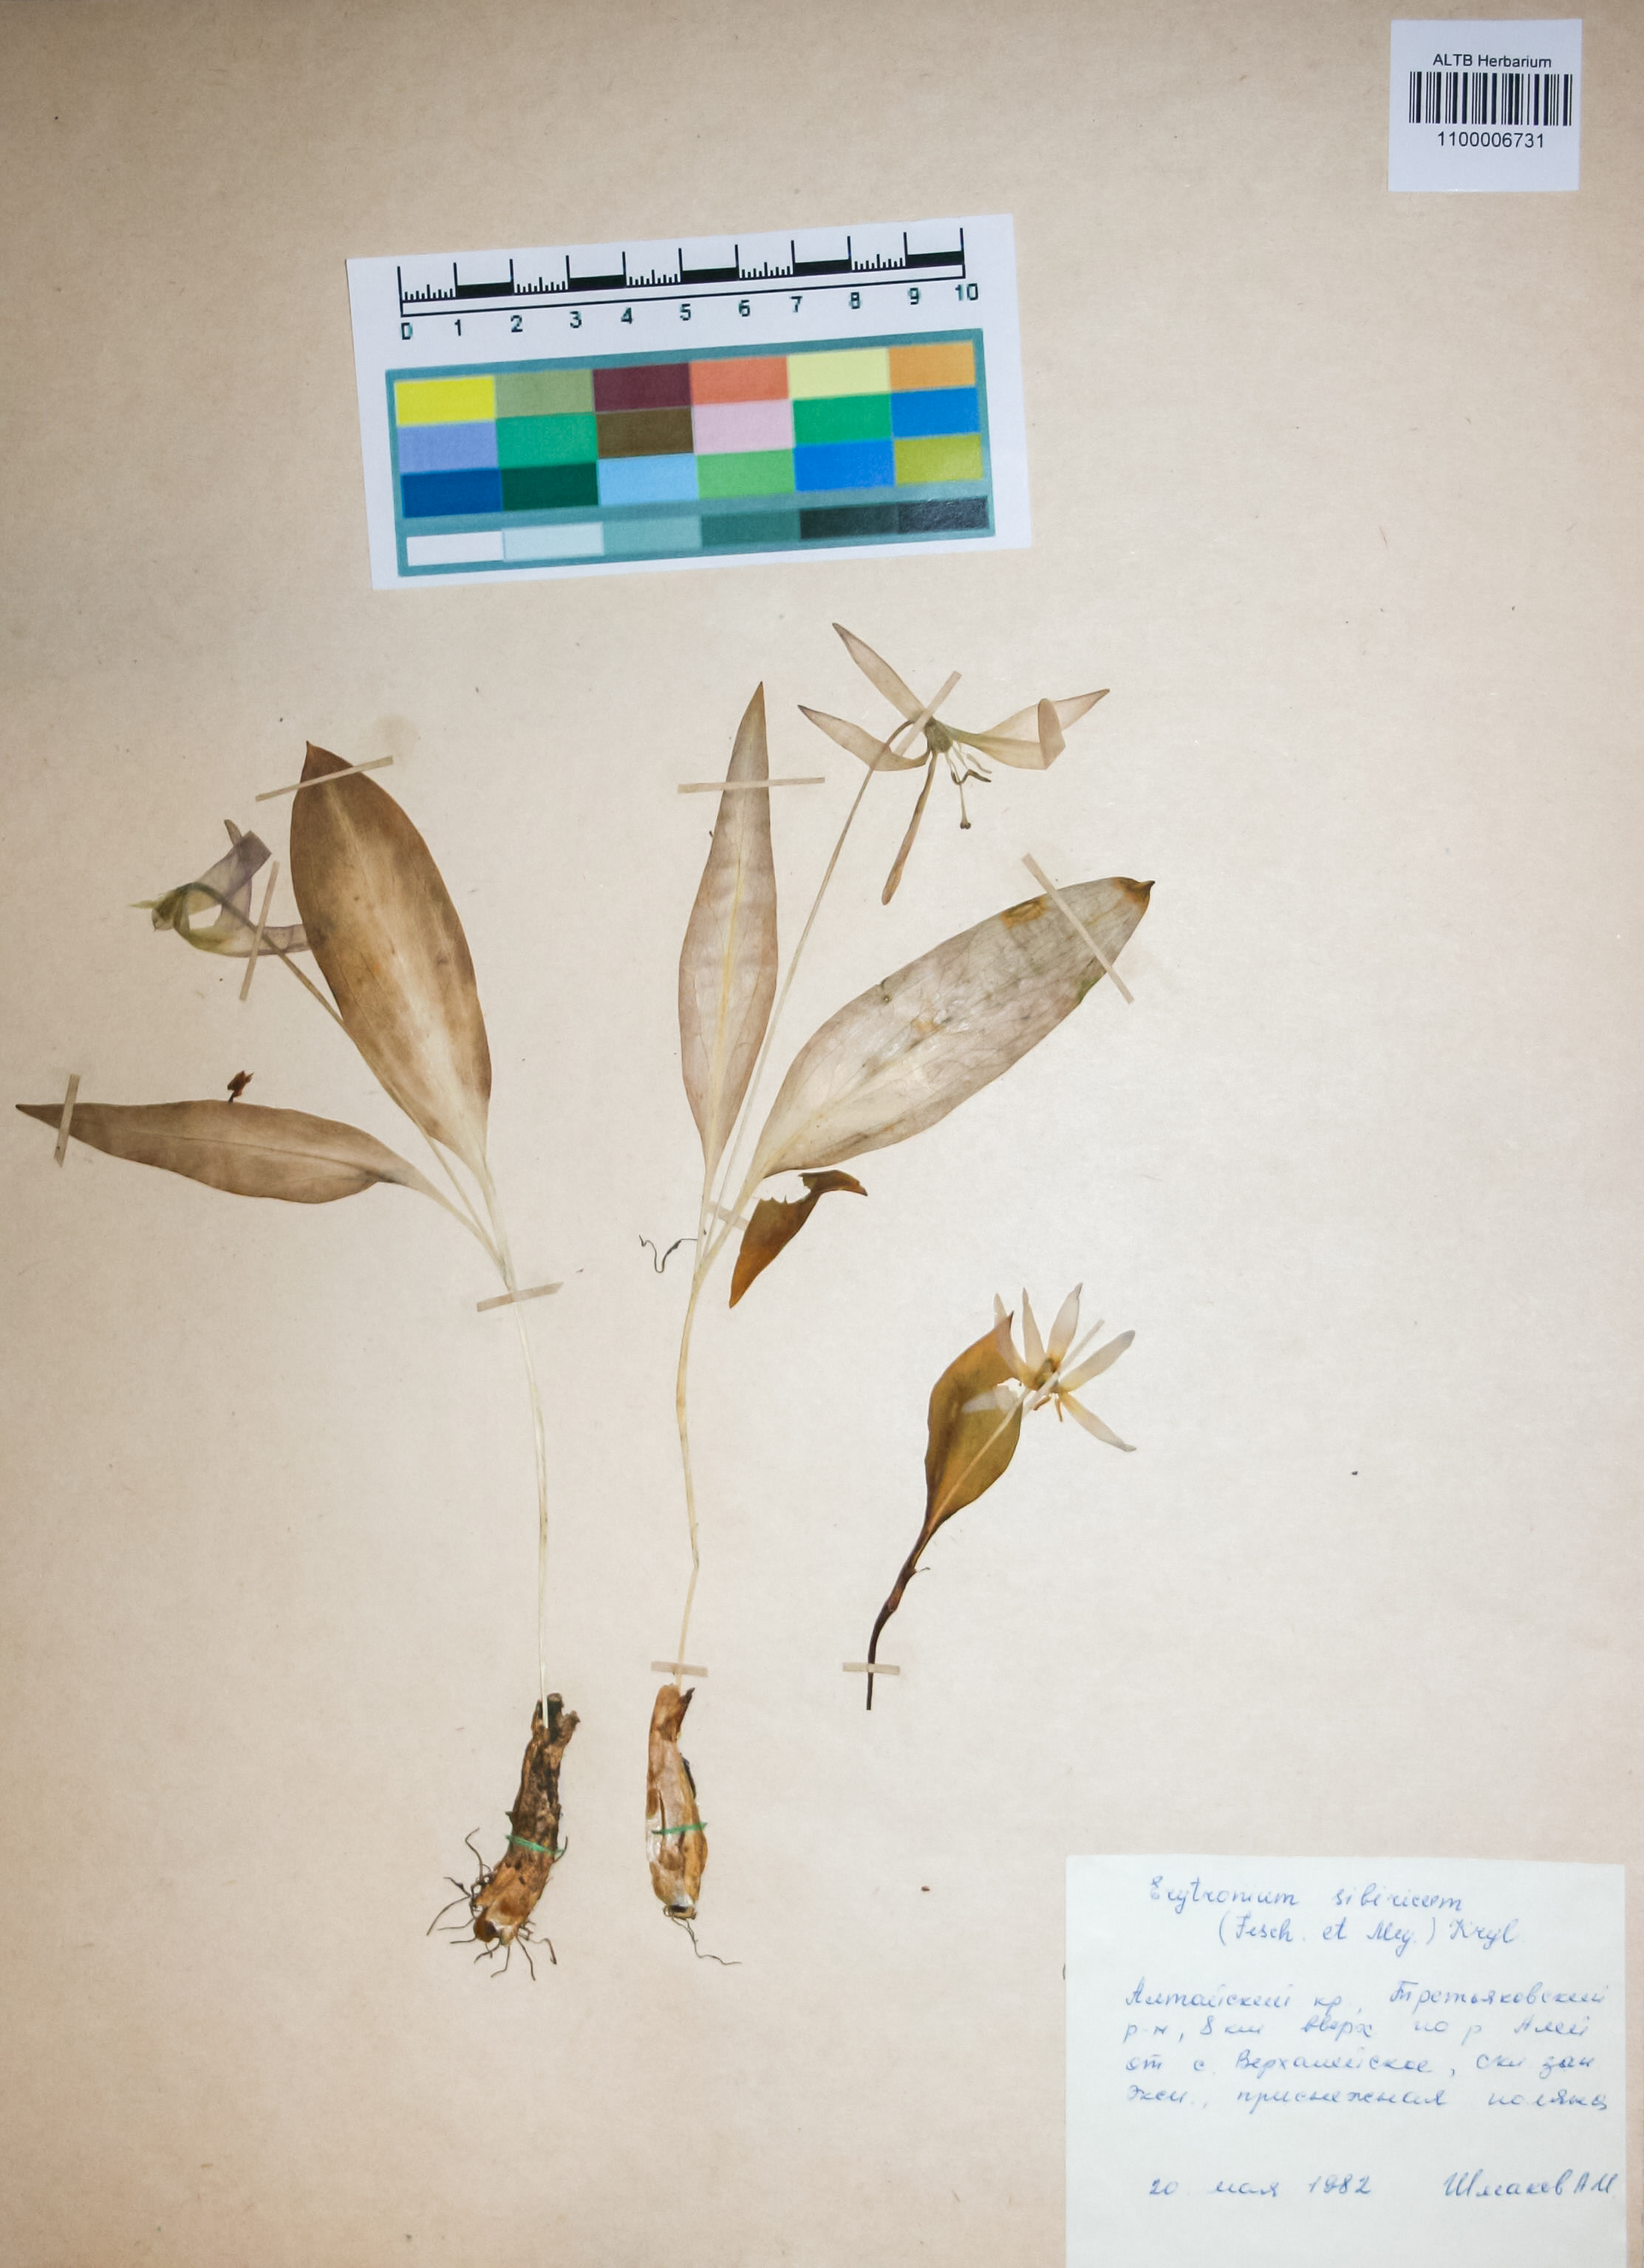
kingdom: Plantae
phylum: Tracheophyta
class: Liliopsida
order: Liliales
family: Liliaceae
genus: Erythronium
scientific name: Erythronium sibiricum
